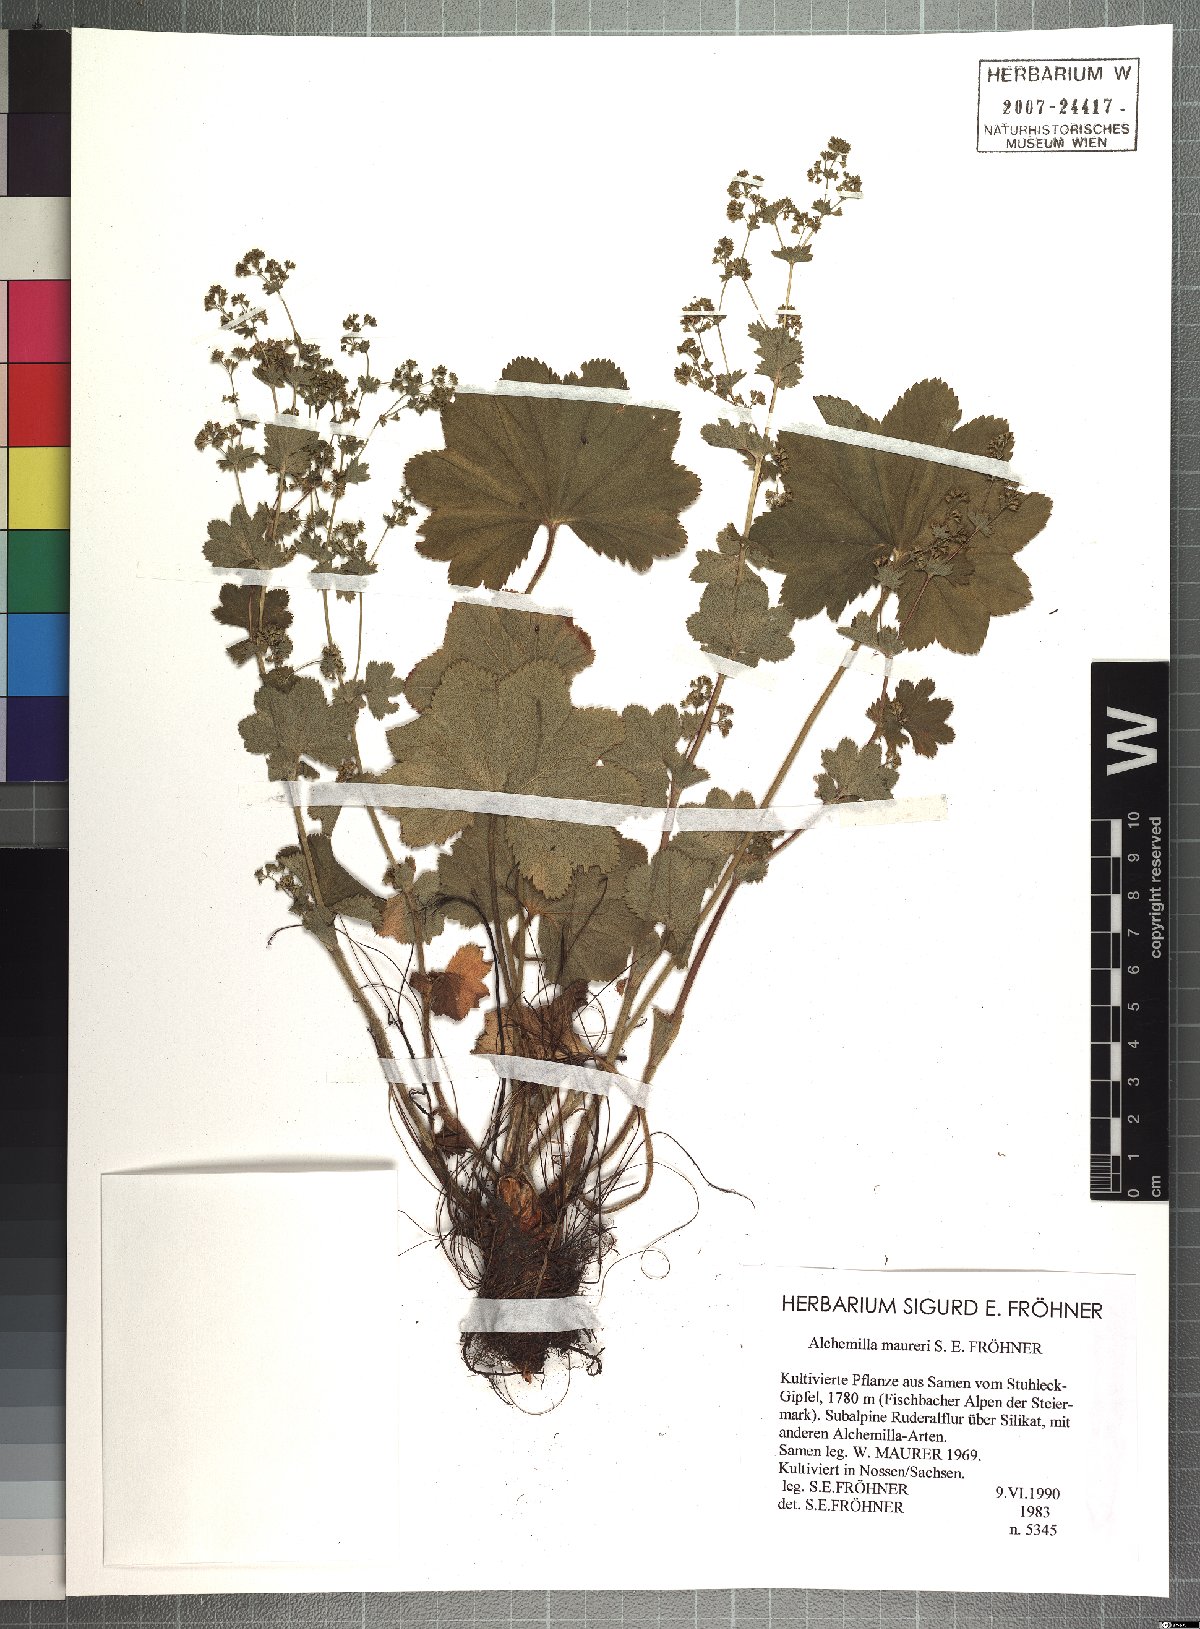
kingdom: Plantae
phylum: Tracheophyta
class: Magnoliopsida
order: Rosales
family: Rosaceae
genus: Alchemilla
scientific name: Alchemilla maureri
